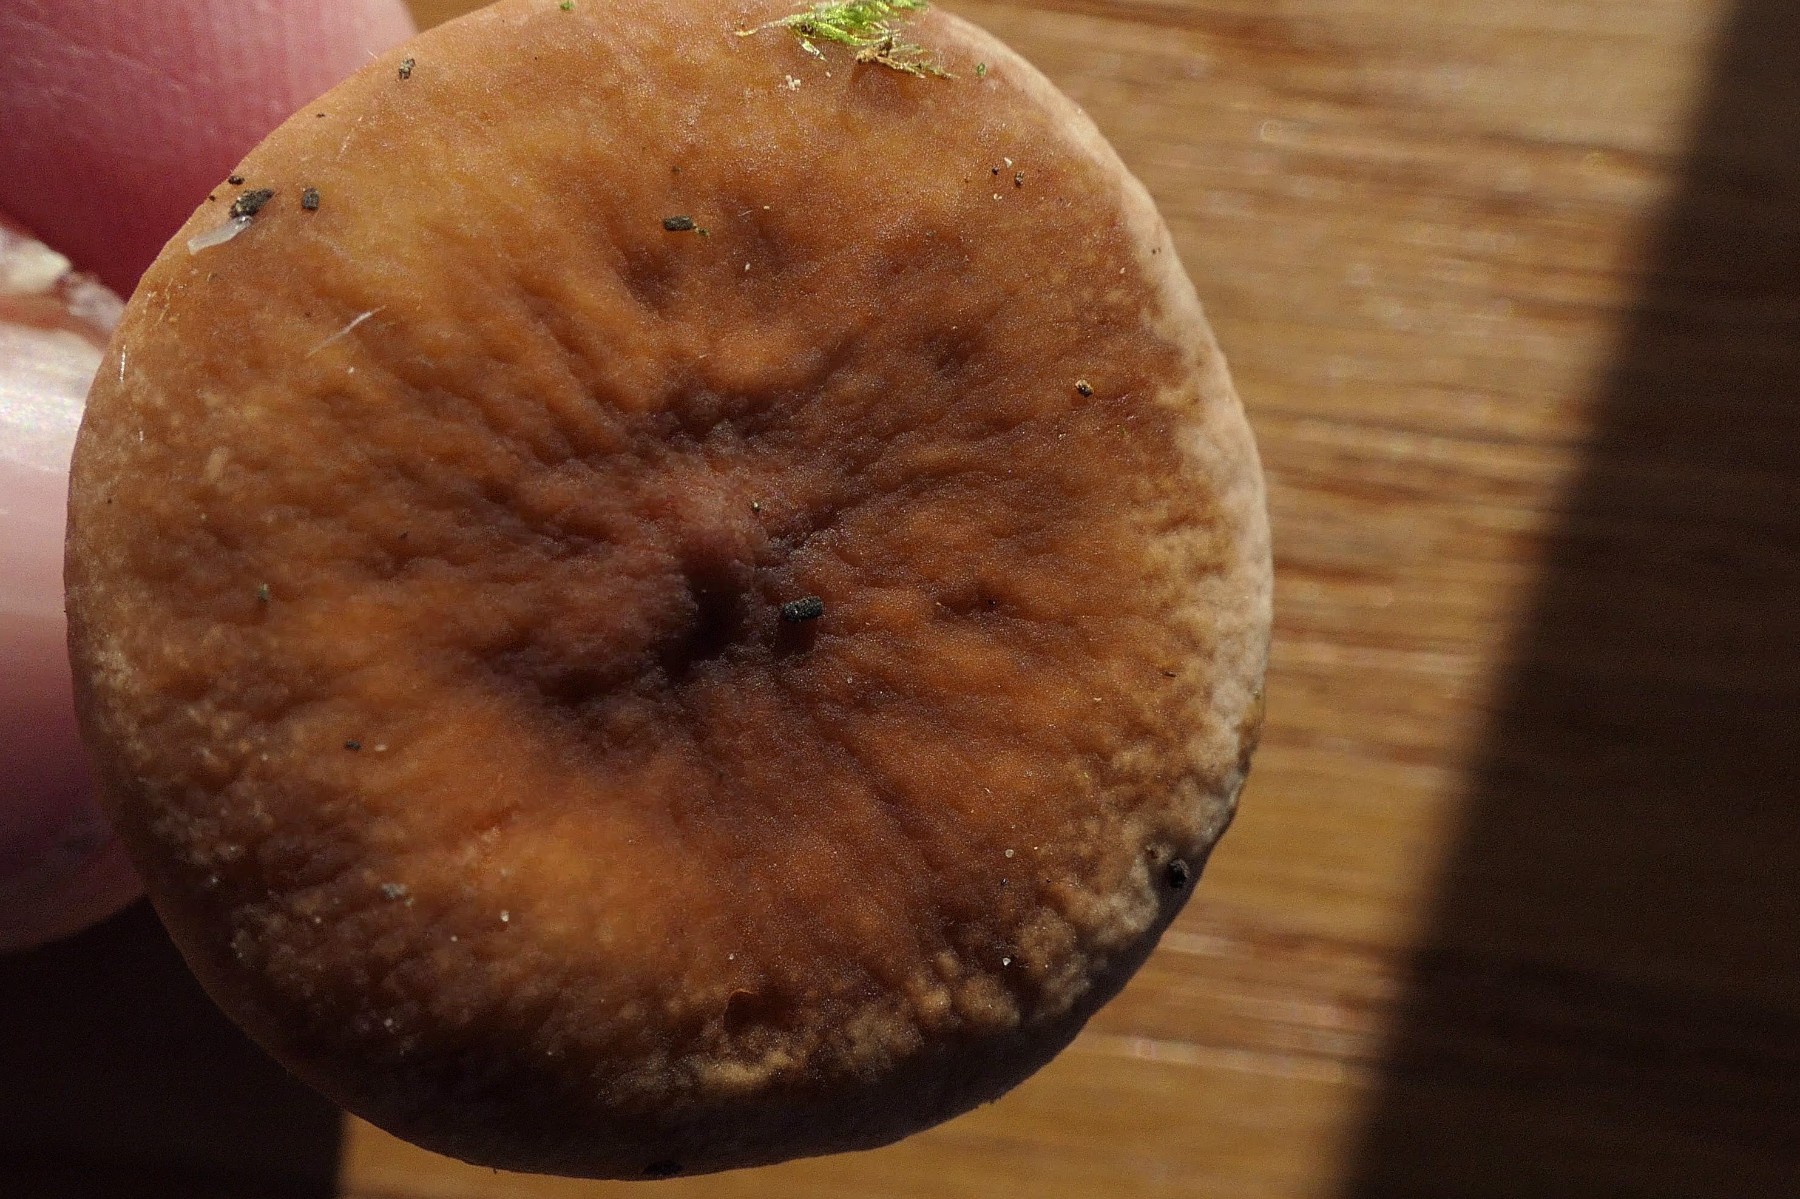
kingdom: Fungi
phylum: Basidiomycota
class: Agaricomycetes
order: Russulales
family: Russulaceae
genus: Lactarius
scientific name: Lactarius rostratus
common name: nubret mælkehat
